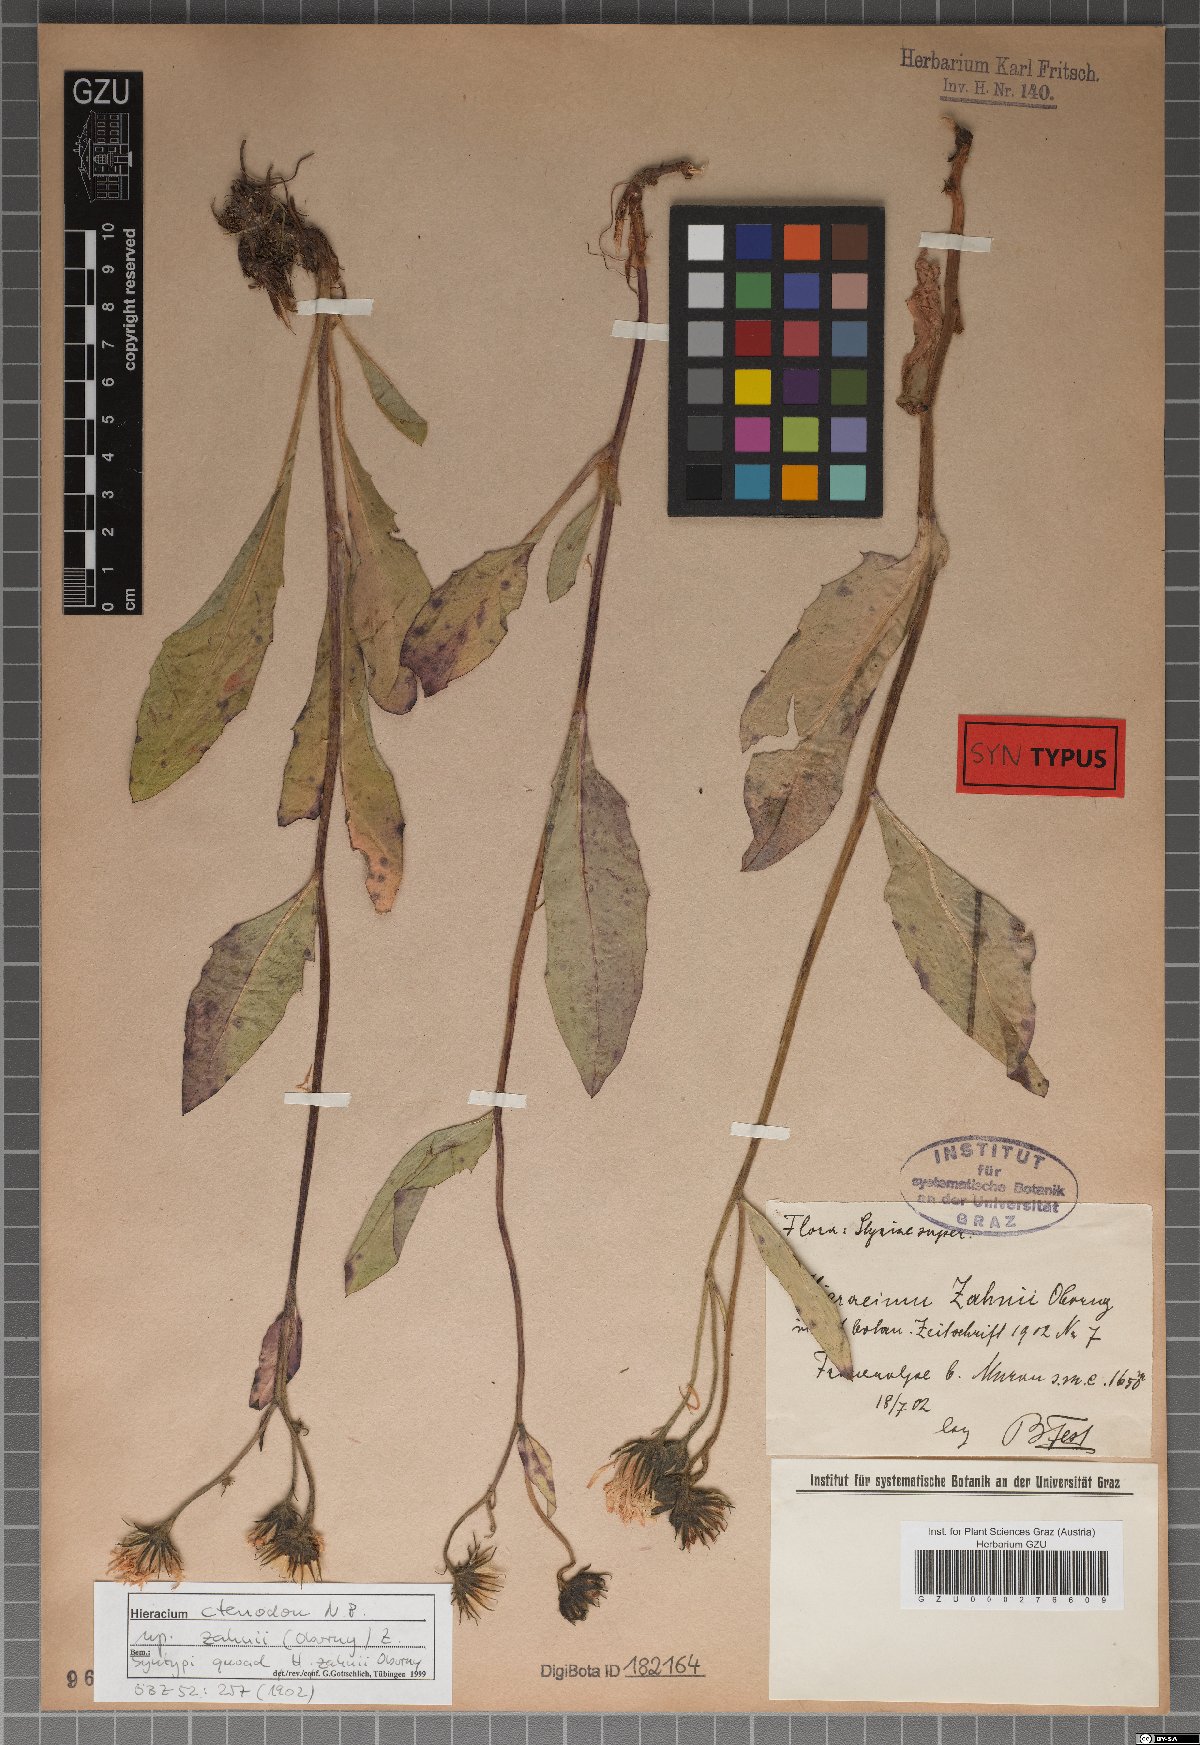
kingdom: Plantae
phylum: Tracheophyta
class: Magnoliopsida
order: Asterales
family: Asteraceae
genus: Hieracium
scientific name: Hieracium ctenodon
